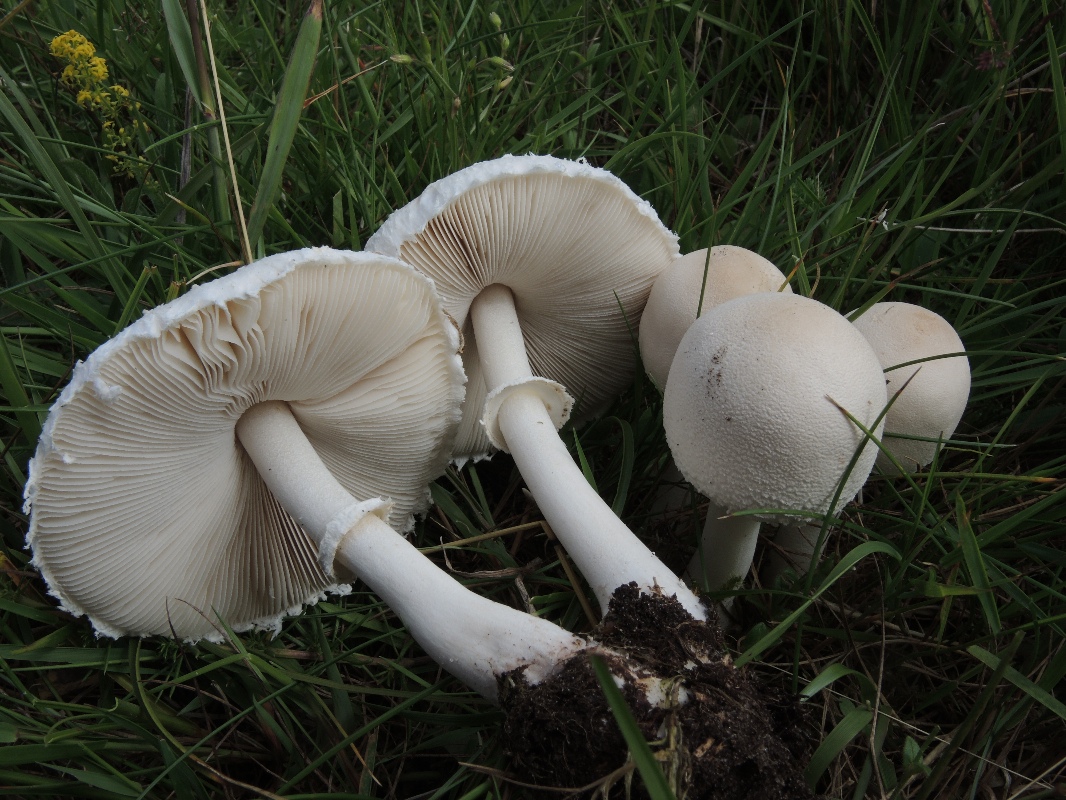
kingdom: Fungi
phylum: Basidiomycota
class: Agaricomycetes
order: Agaricales
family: Agaricaceae
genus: Macrolepiota
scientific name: Macrolepiota excoriata
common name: mark-kæmpeparasolhat
